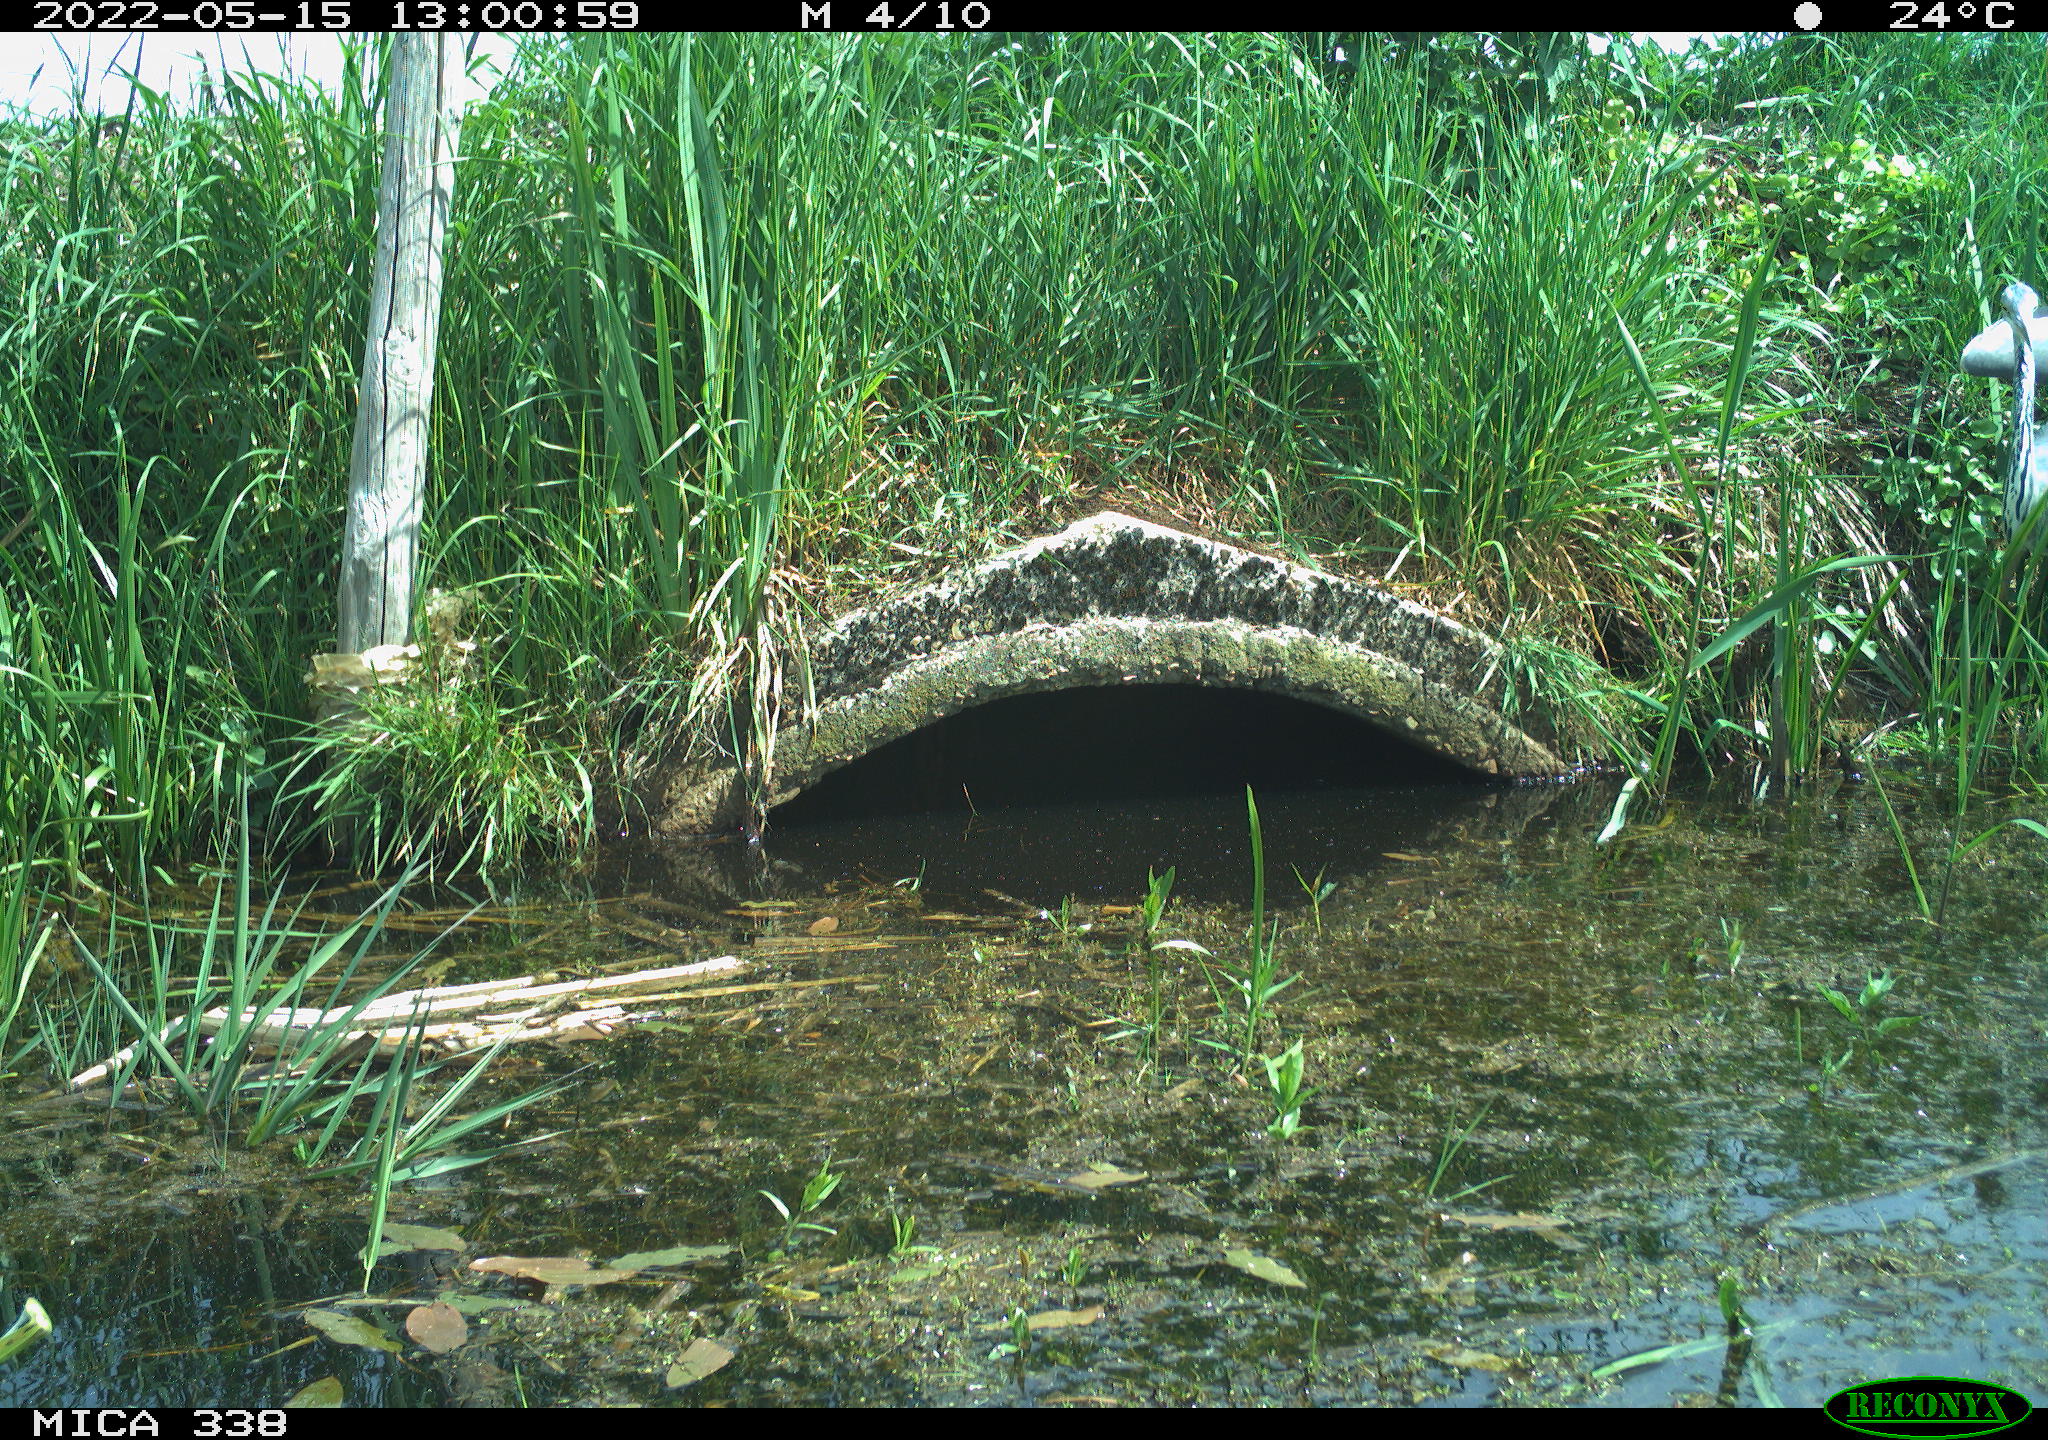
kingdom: Animalia
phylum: Chordata
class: Aves
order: Pelecaniformes
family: Ardeidae
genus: Ardea
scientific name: Ardea cinerea
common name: Grey heron
